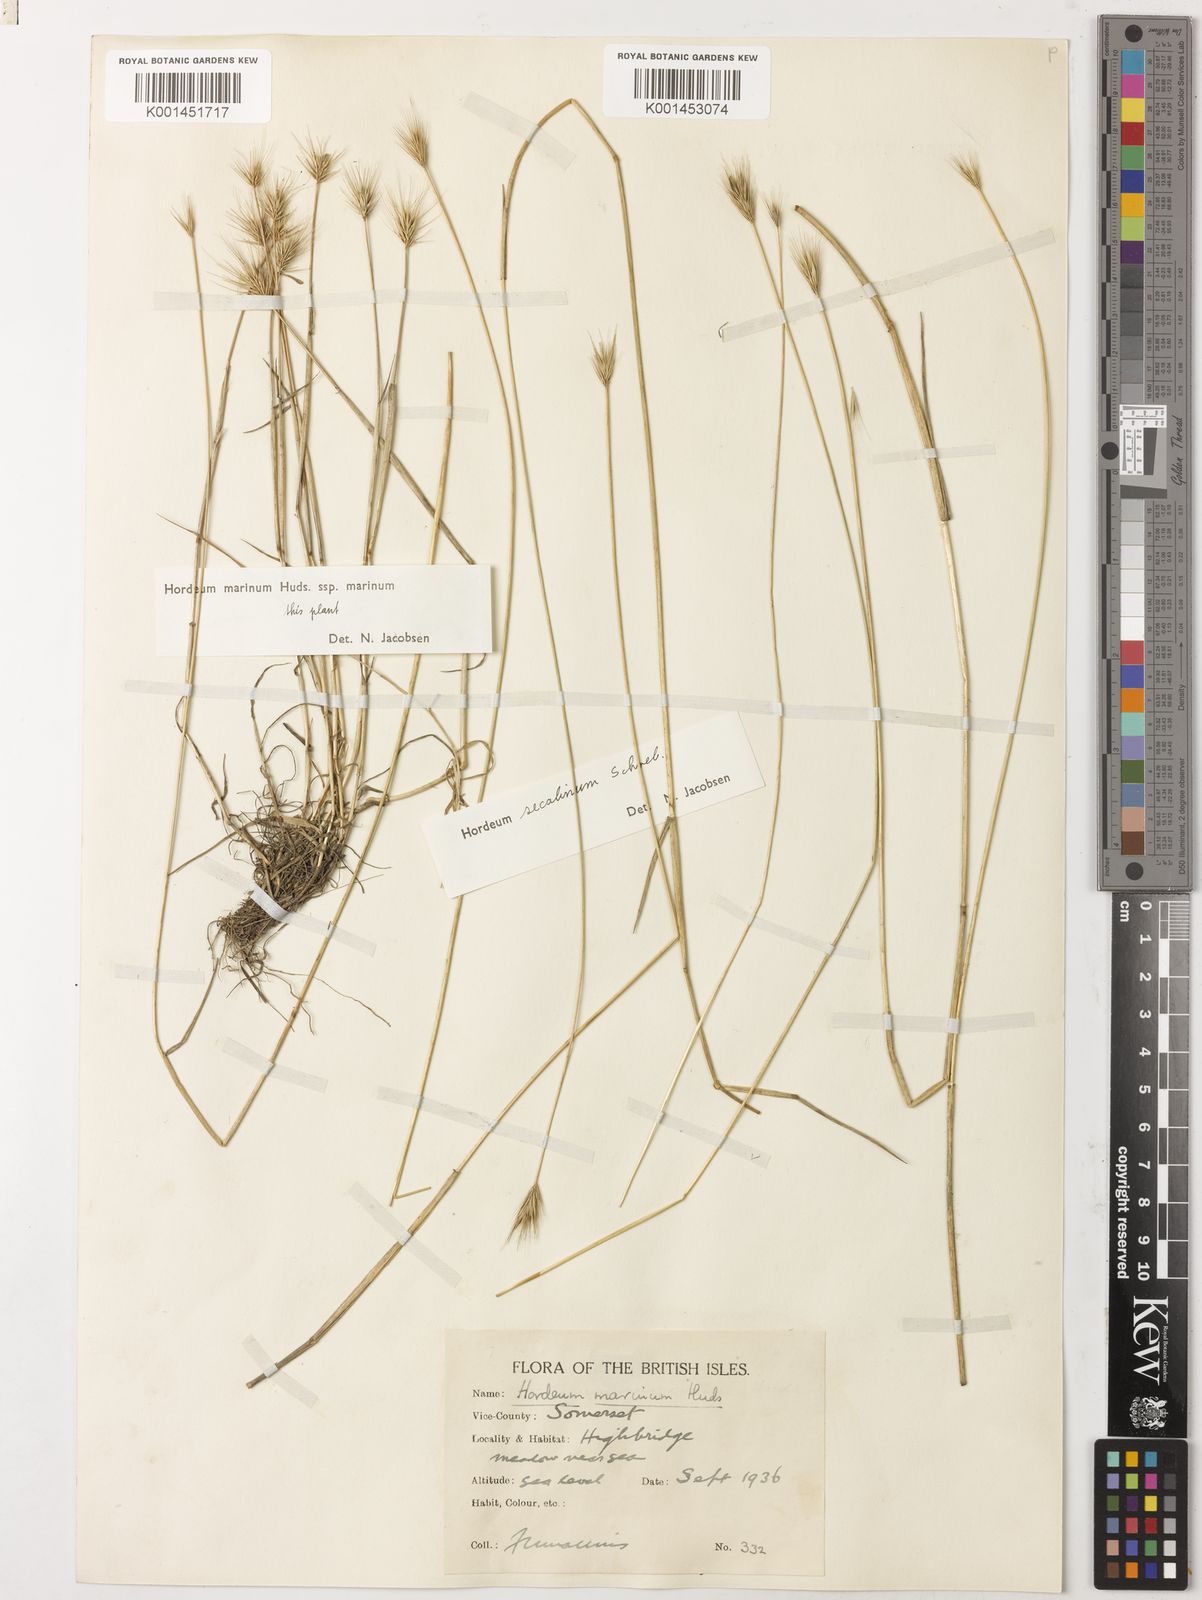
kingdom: Plantae
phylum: Tracheophyta
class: Liliopsida
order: Poales
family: Poaceae
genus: Hordeum
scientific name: Hordeum secalinum
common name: Meadow barley
